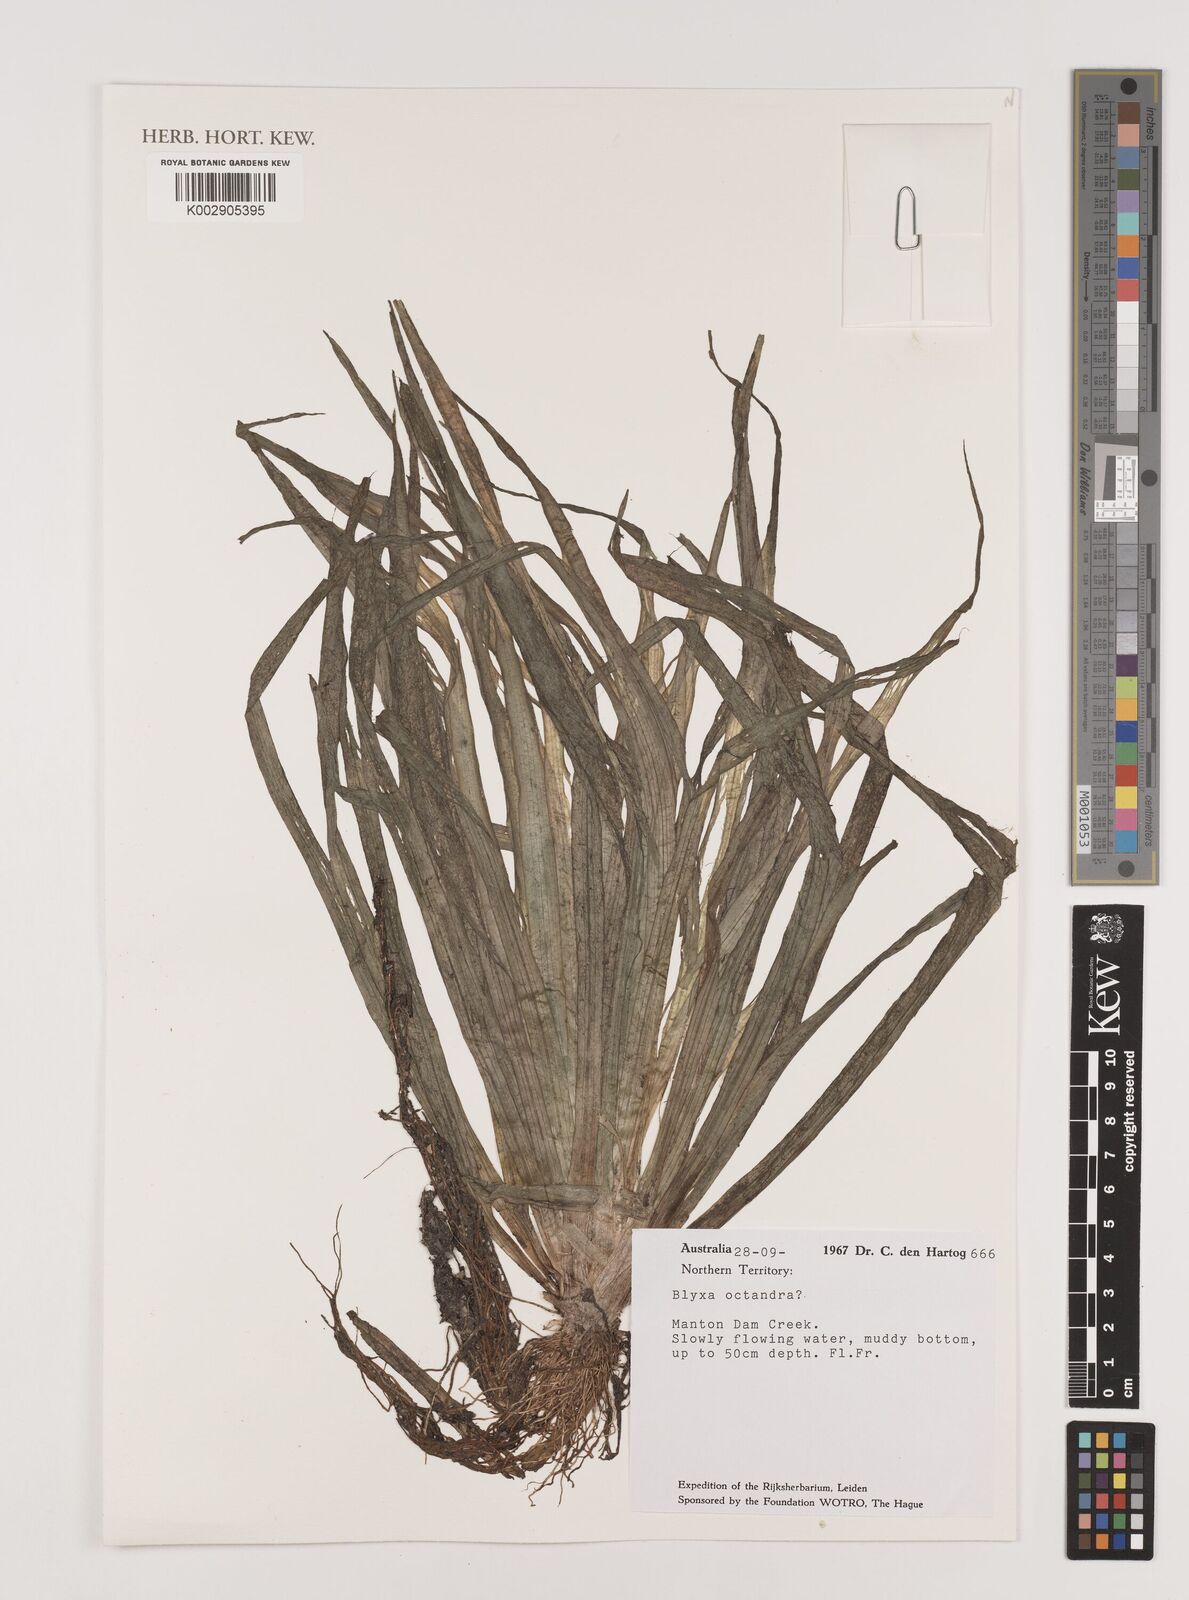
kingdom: Plantae
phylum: Tracheophyta
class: Liliopsida
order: Alismatales
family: Hydrocharitaceae
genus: Blyxa
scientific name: Blyxa octandra
